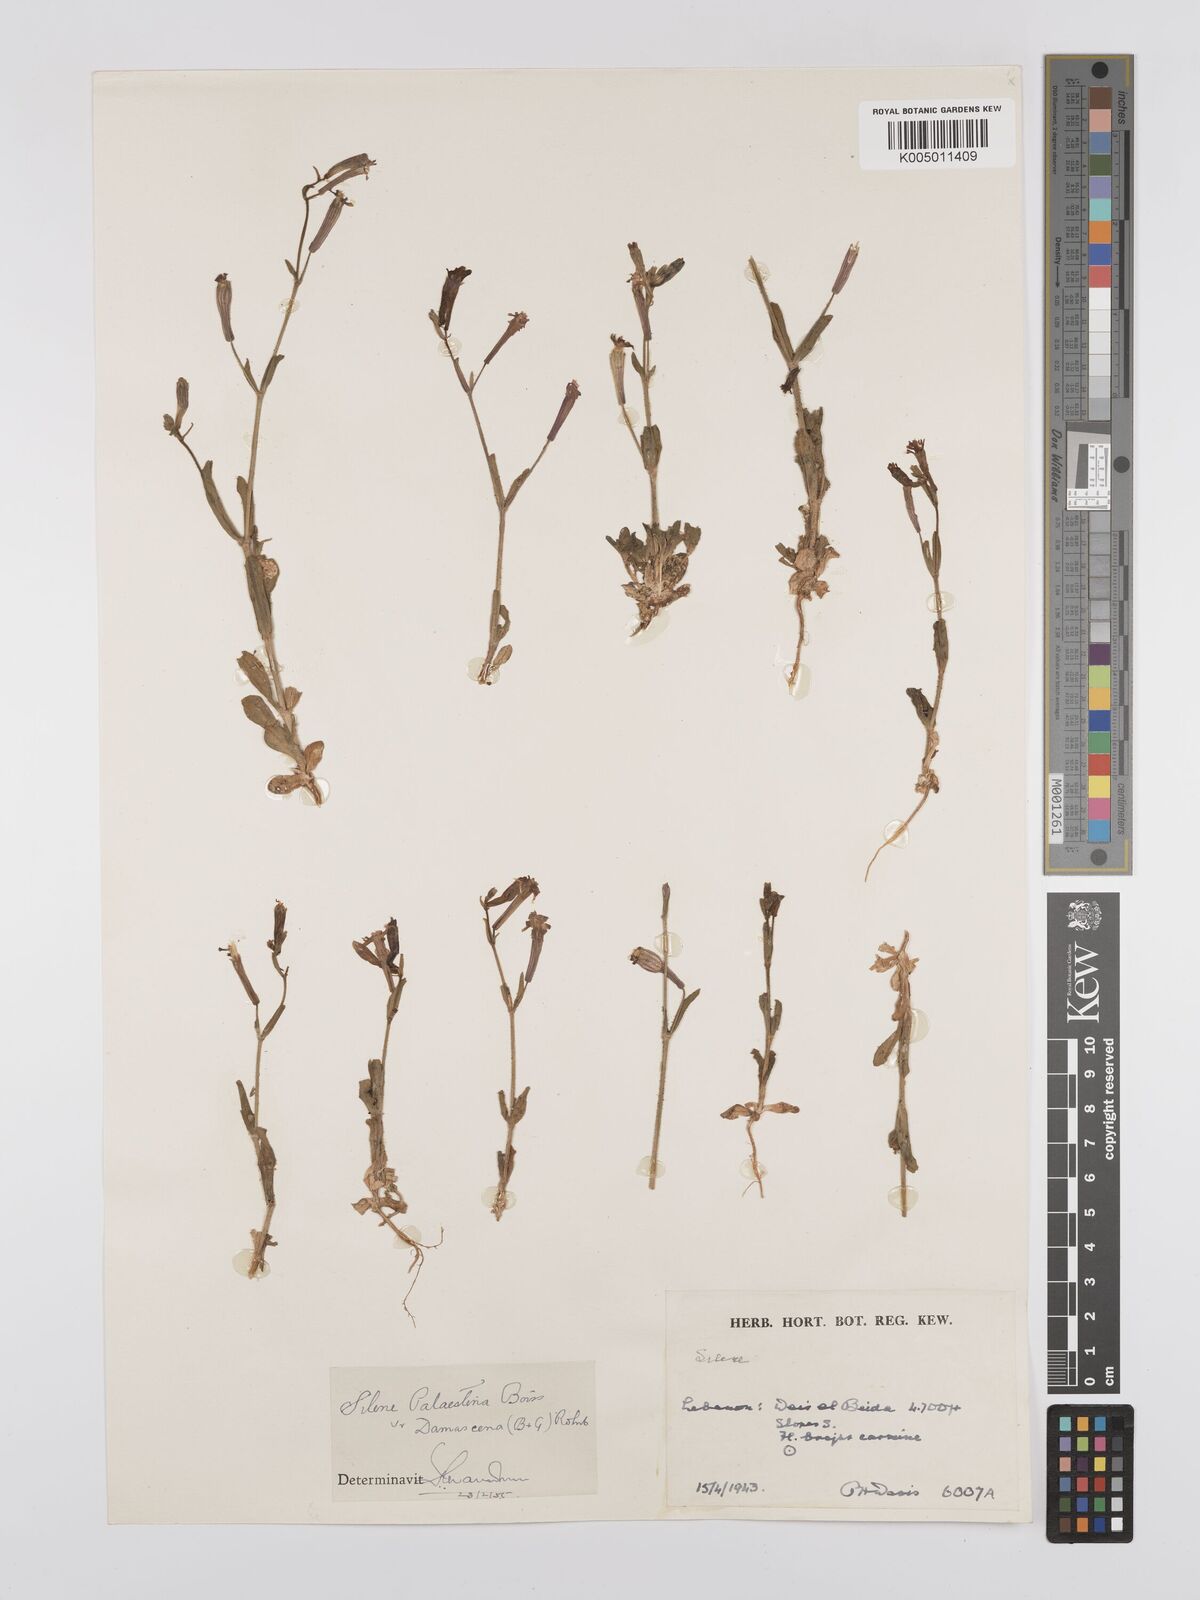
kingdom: Plantae
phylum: Tracheophyta
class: Magnoliopsida
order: Caryophyllales
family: Caryophyllaceae
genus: Silene
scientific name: Silene damascena
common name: Damascus catchfly
